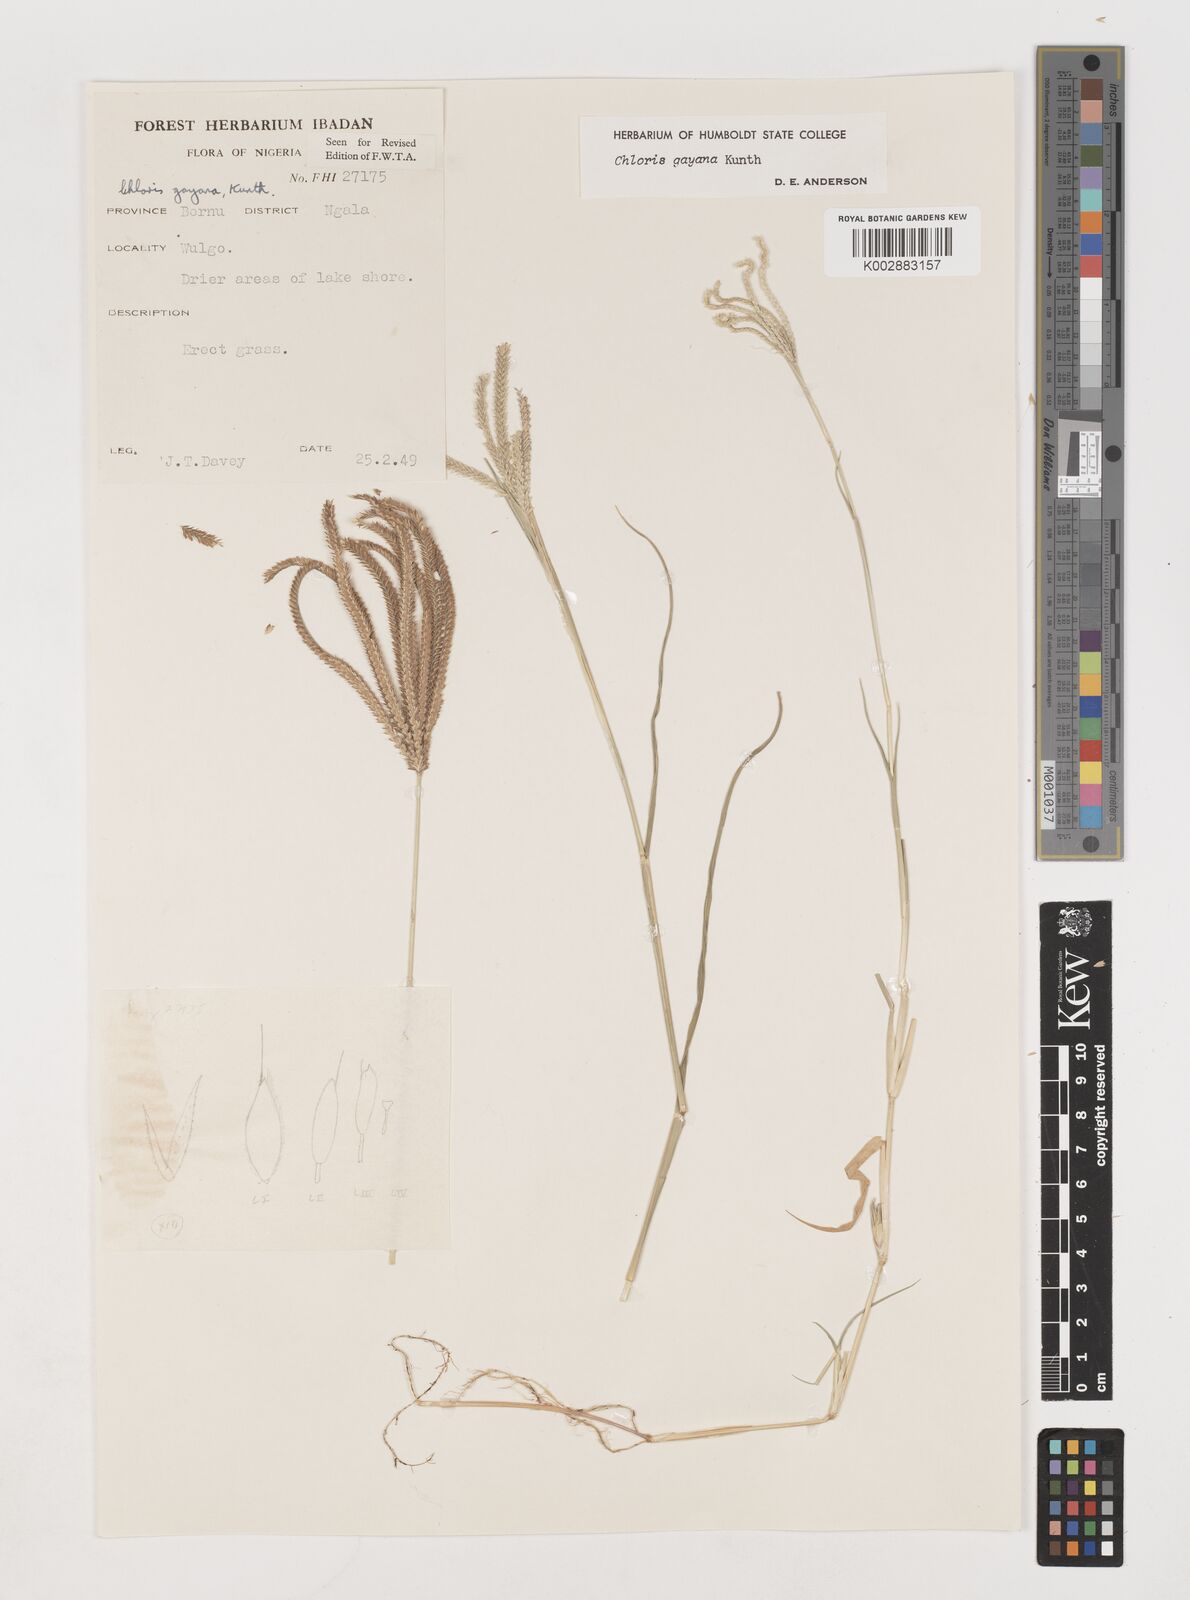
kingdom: Plantae
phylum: Tracheophyta
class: Liliopsida
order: Poales
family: Poaceae
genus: Chloris
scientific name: Chloris gayana
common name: Rhodes grass
